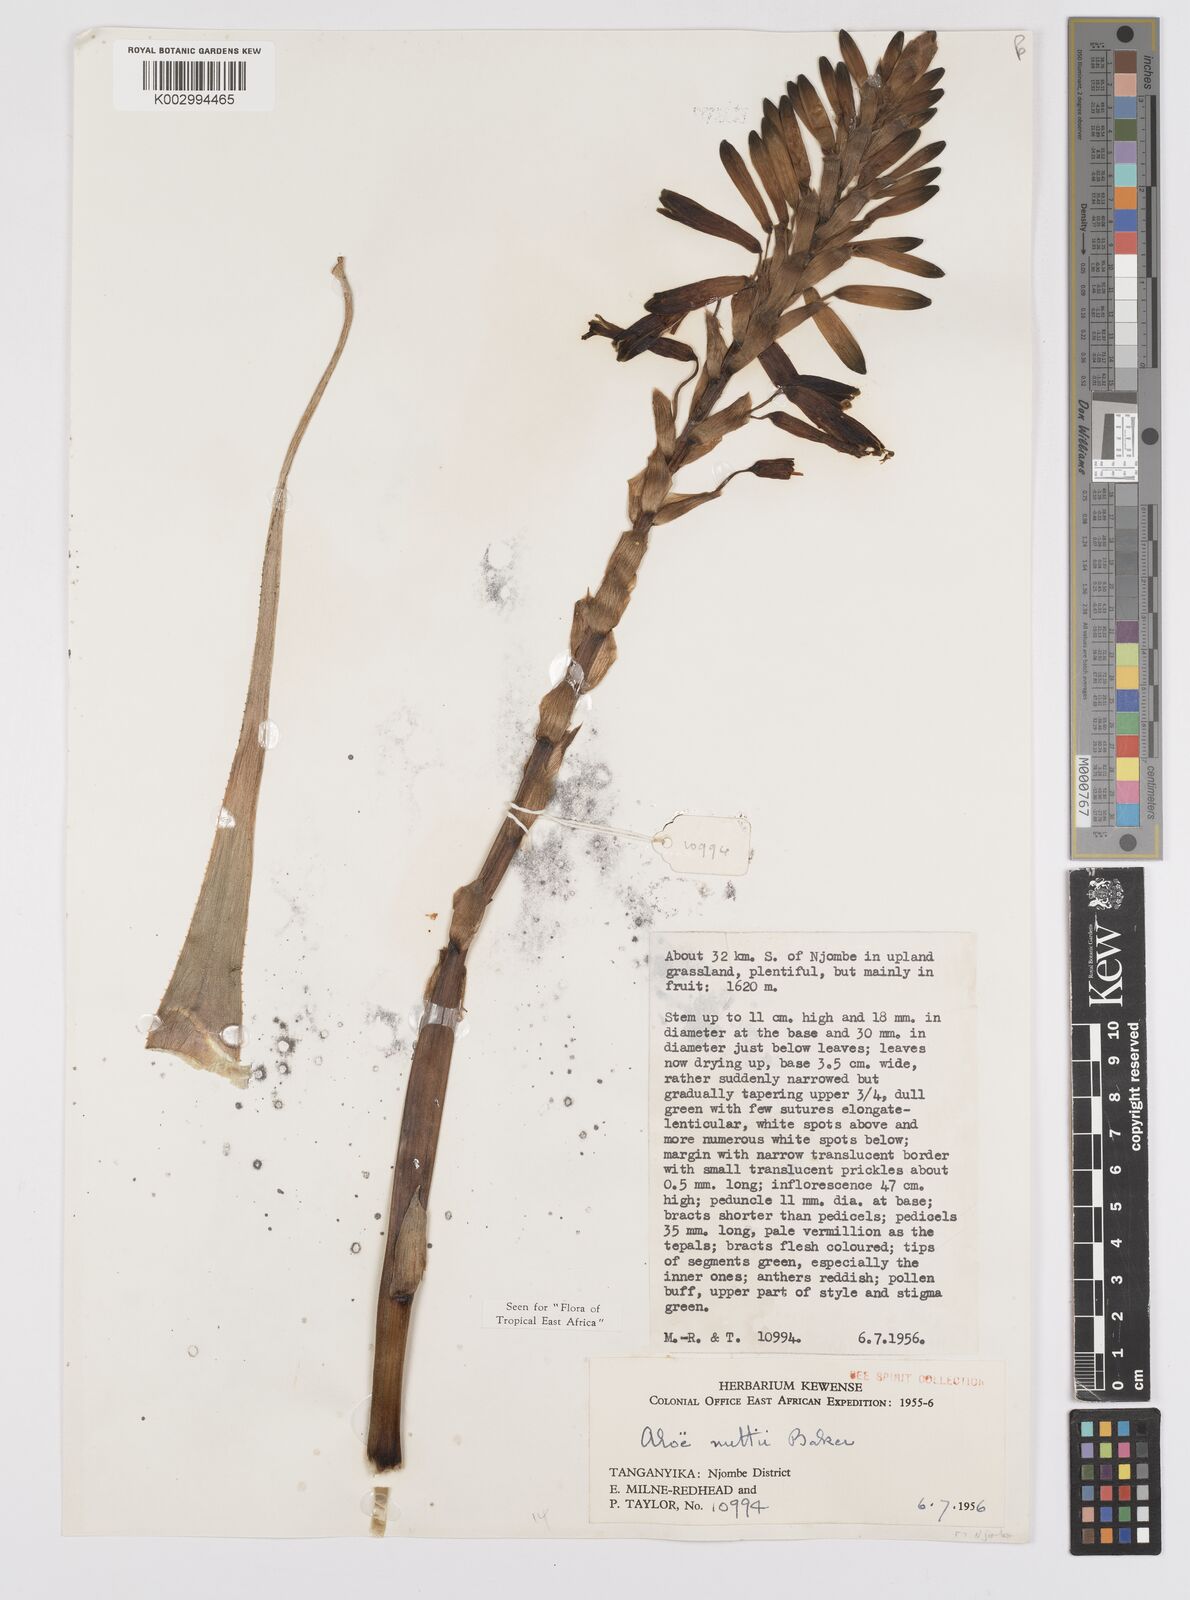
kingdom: Plantae
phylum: Tracheophyta
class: Liliopsida
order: Asparagales
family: Asphodelaceae
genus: Aloe
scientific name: Aloe nuttii
